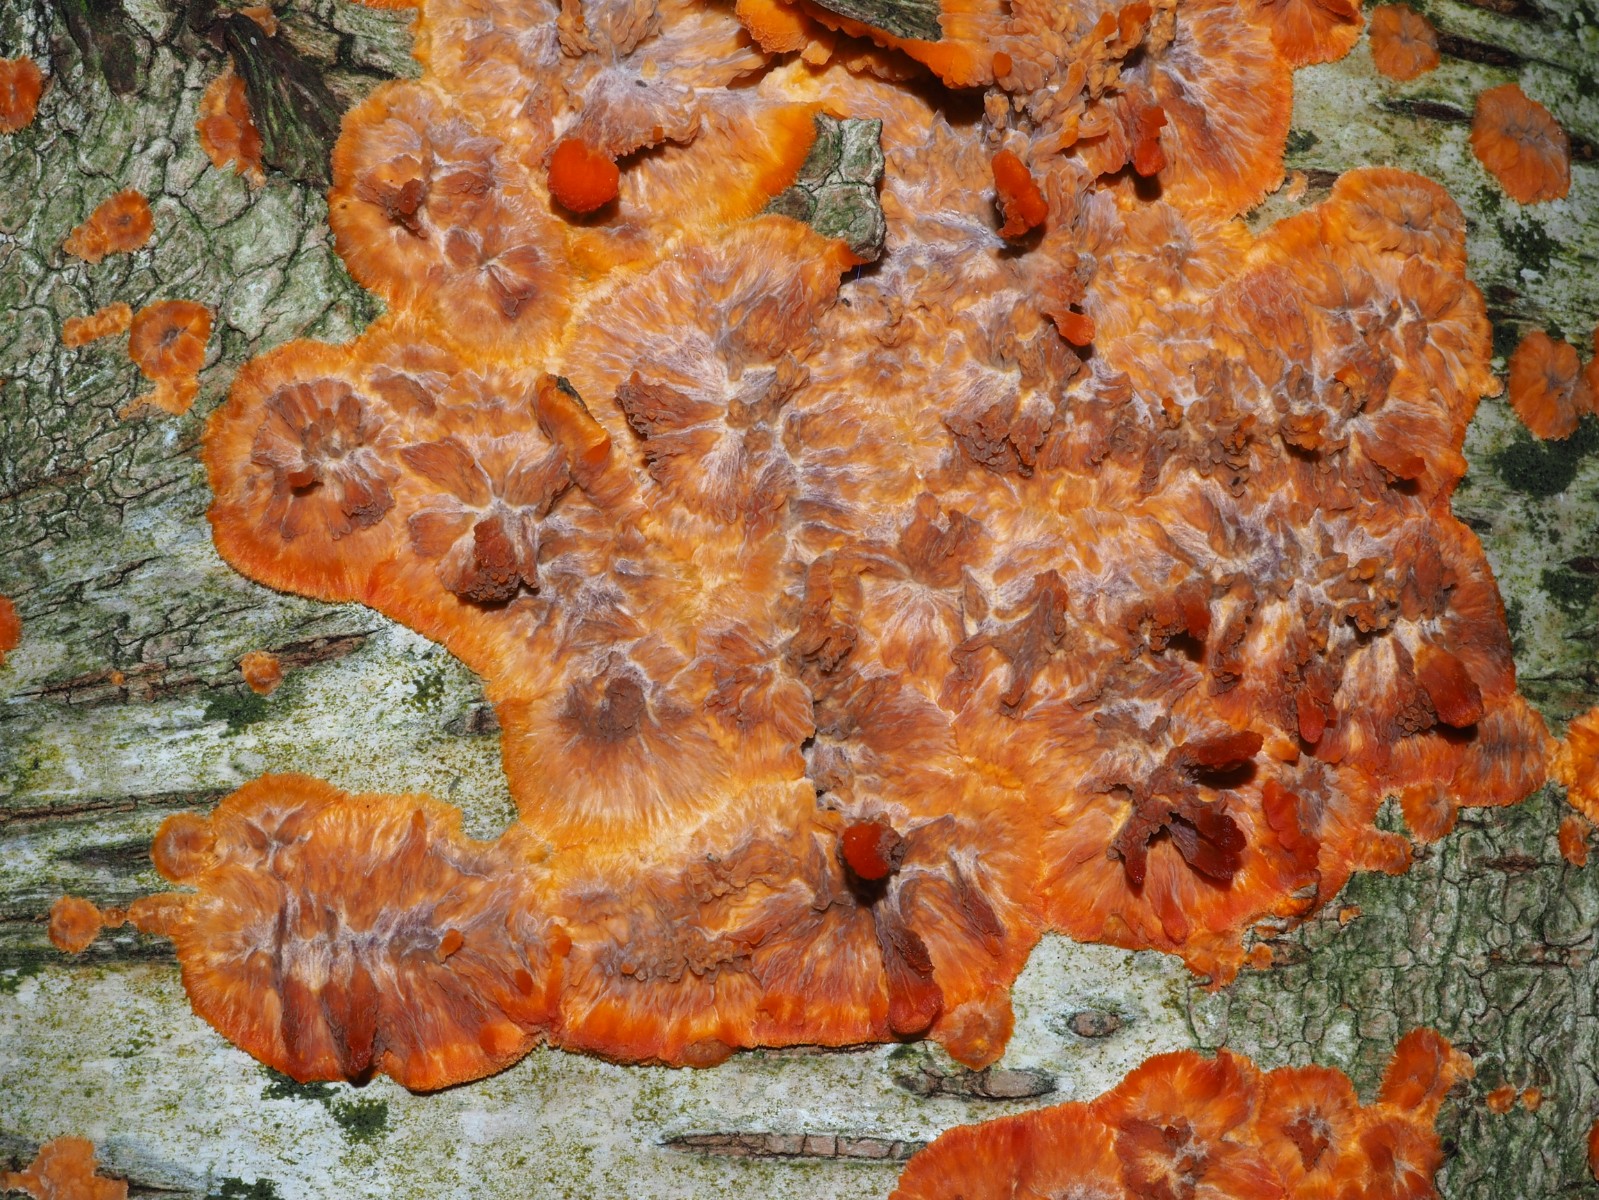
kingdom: Fungi
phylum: Basidiomycota
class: Agaricomycetes
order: Polyporales
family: Meruliaceae
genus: Phlebia
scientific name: Phlebia radiata
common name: stråle-åresvamp
